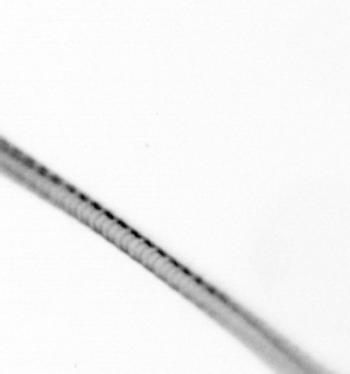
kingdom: Chromista
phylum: Ochrophyta
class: Bacillariophyceae
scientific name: Bacillariophyceae
